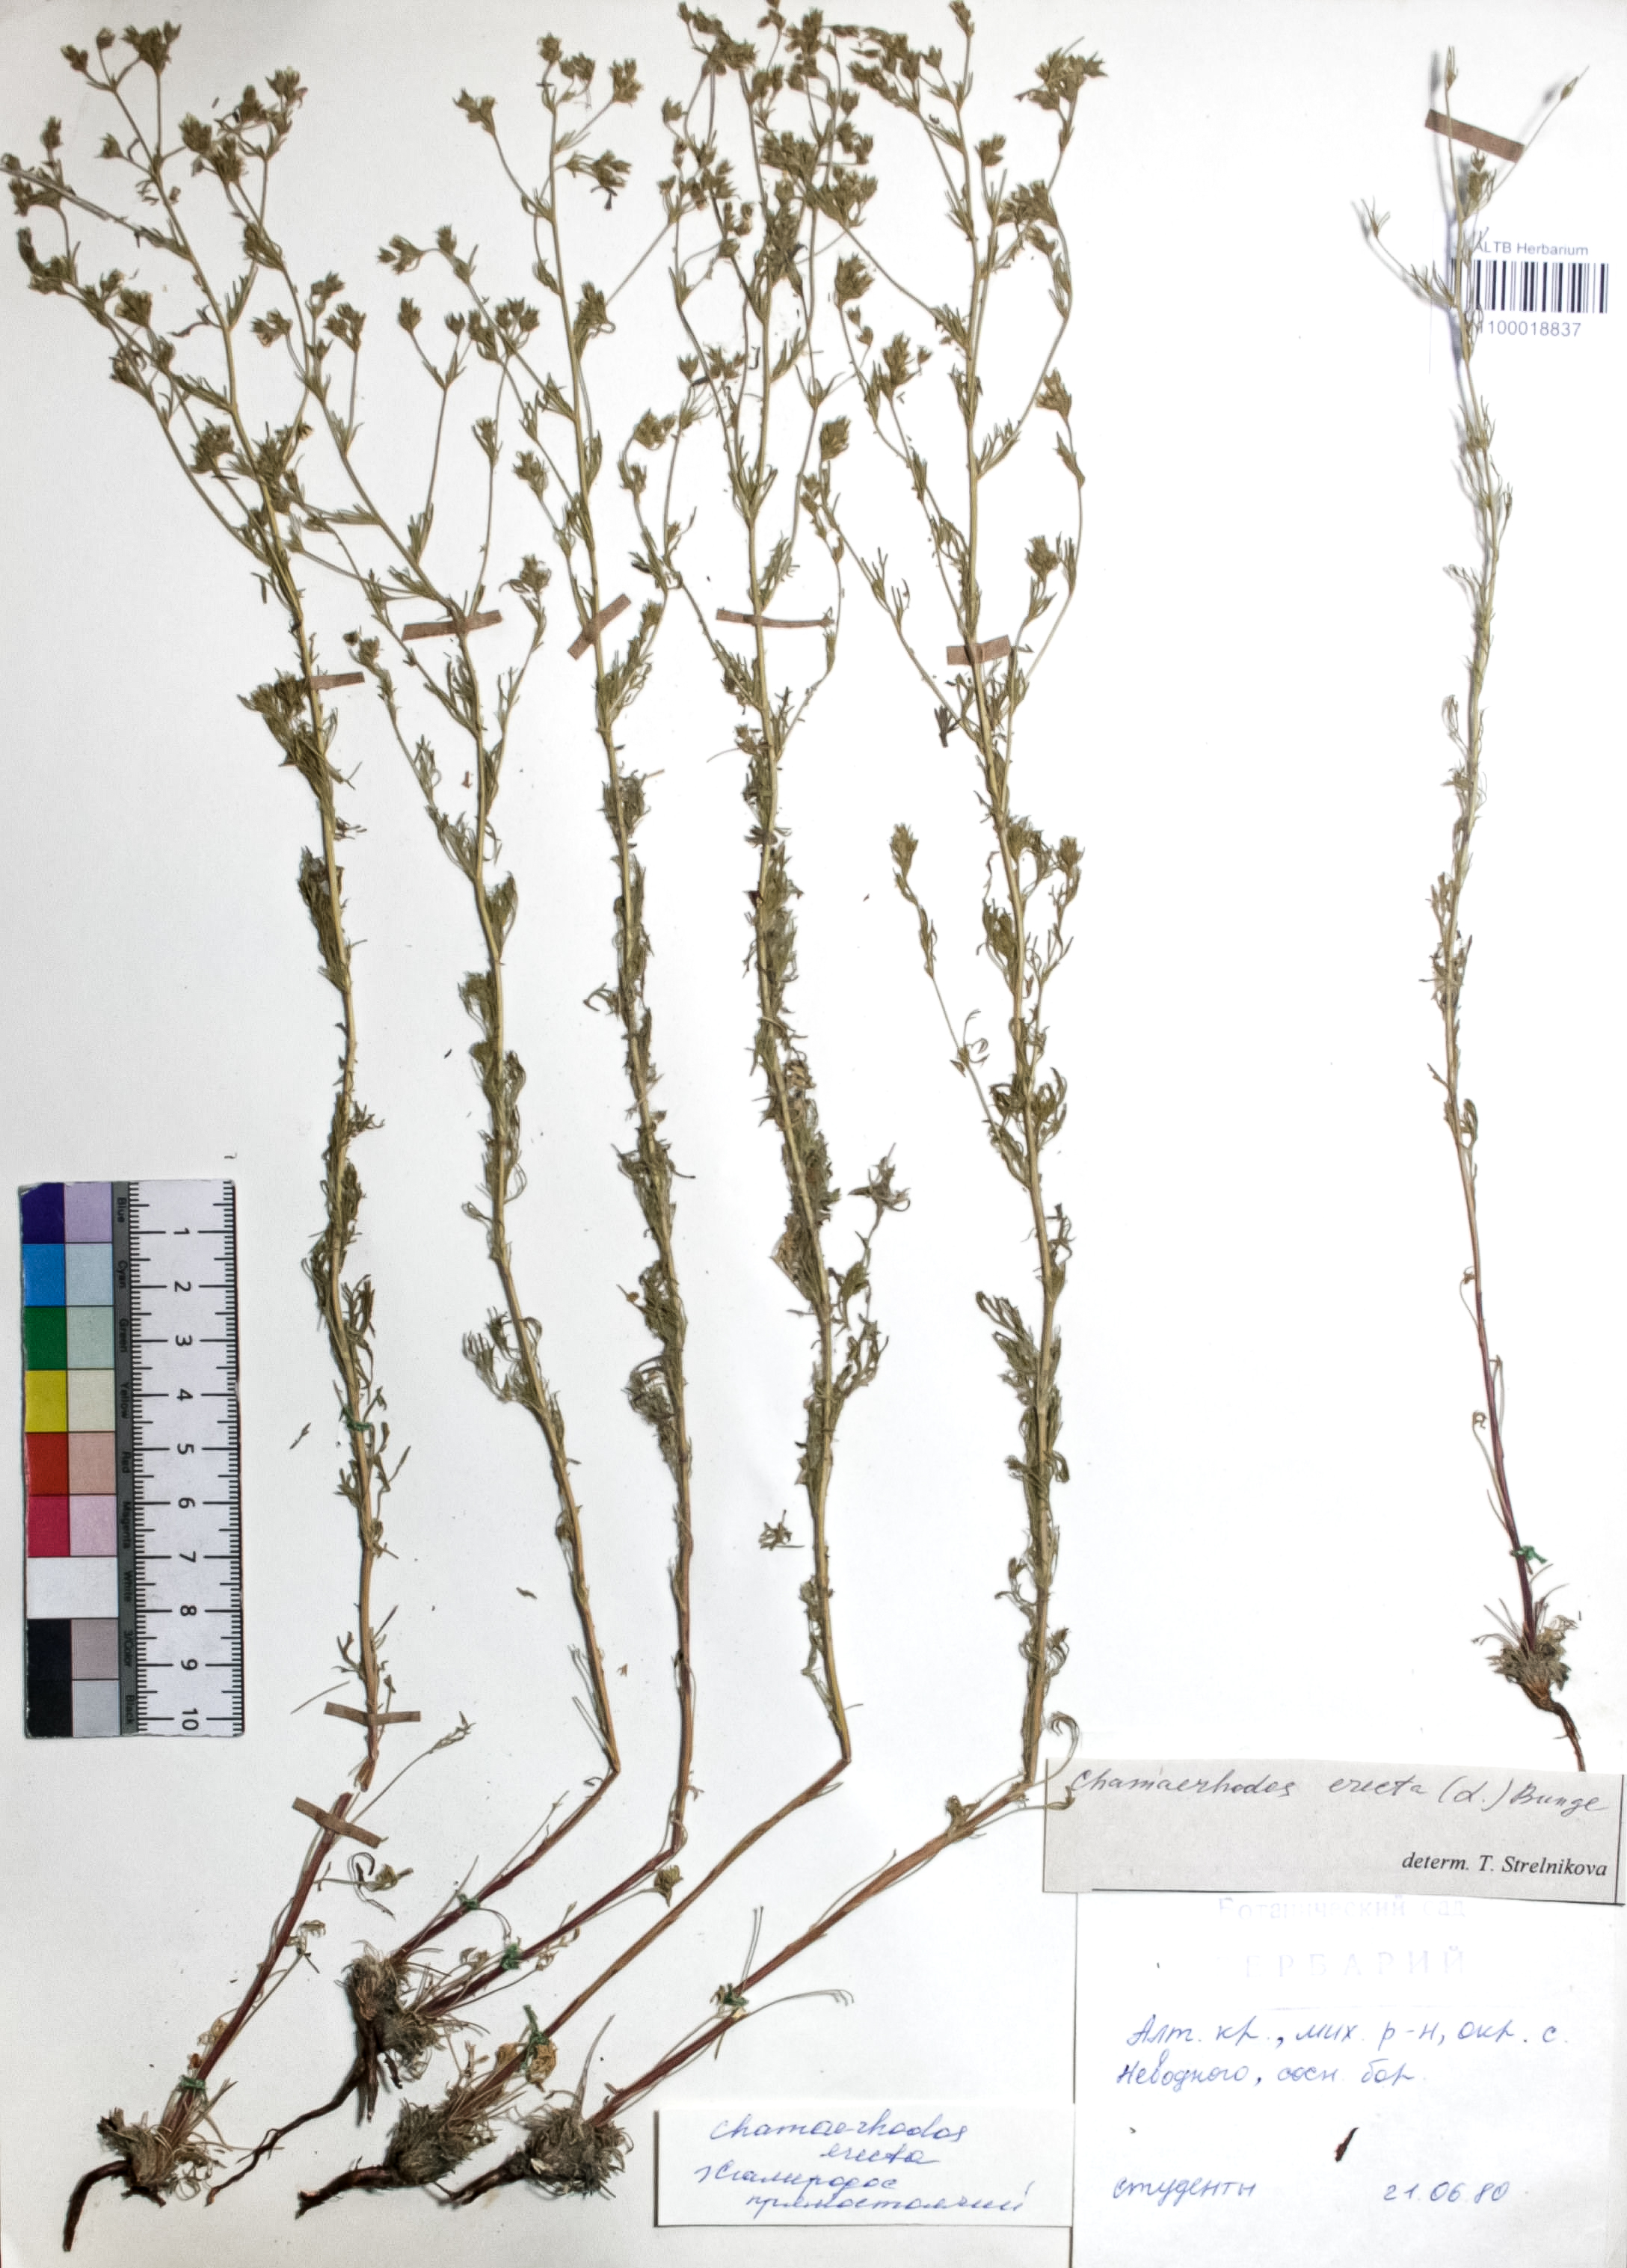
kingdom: Plantae
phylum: Tracheophyta
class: Magnoliopsida
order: Rosales
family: Rosaceae
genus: Chamaerhodos
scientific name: Chamaerhodos erecta
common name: American chamaerhodos
